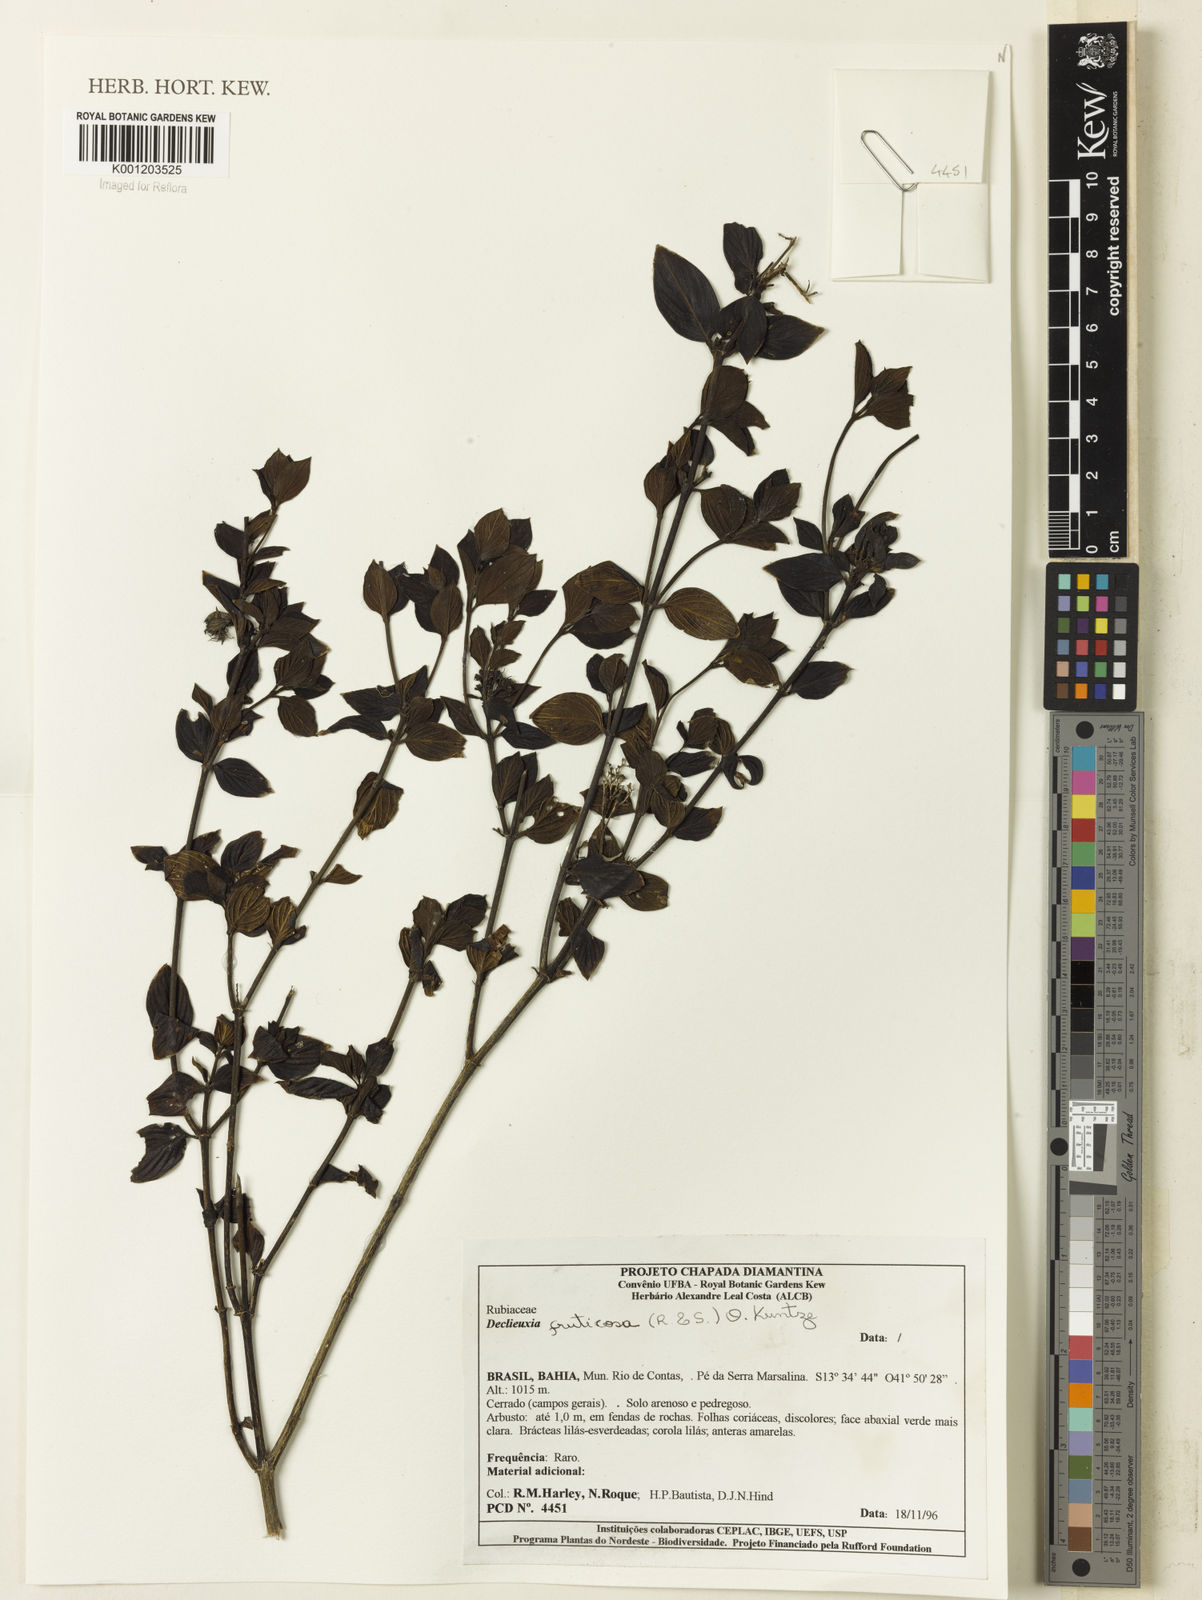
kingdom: Plantae
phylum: Tracheophyta
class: Magnoliopsida
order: Gentianales
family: Rubiaceae
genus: Declieuxia
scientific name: Declieuxia fruticosa
